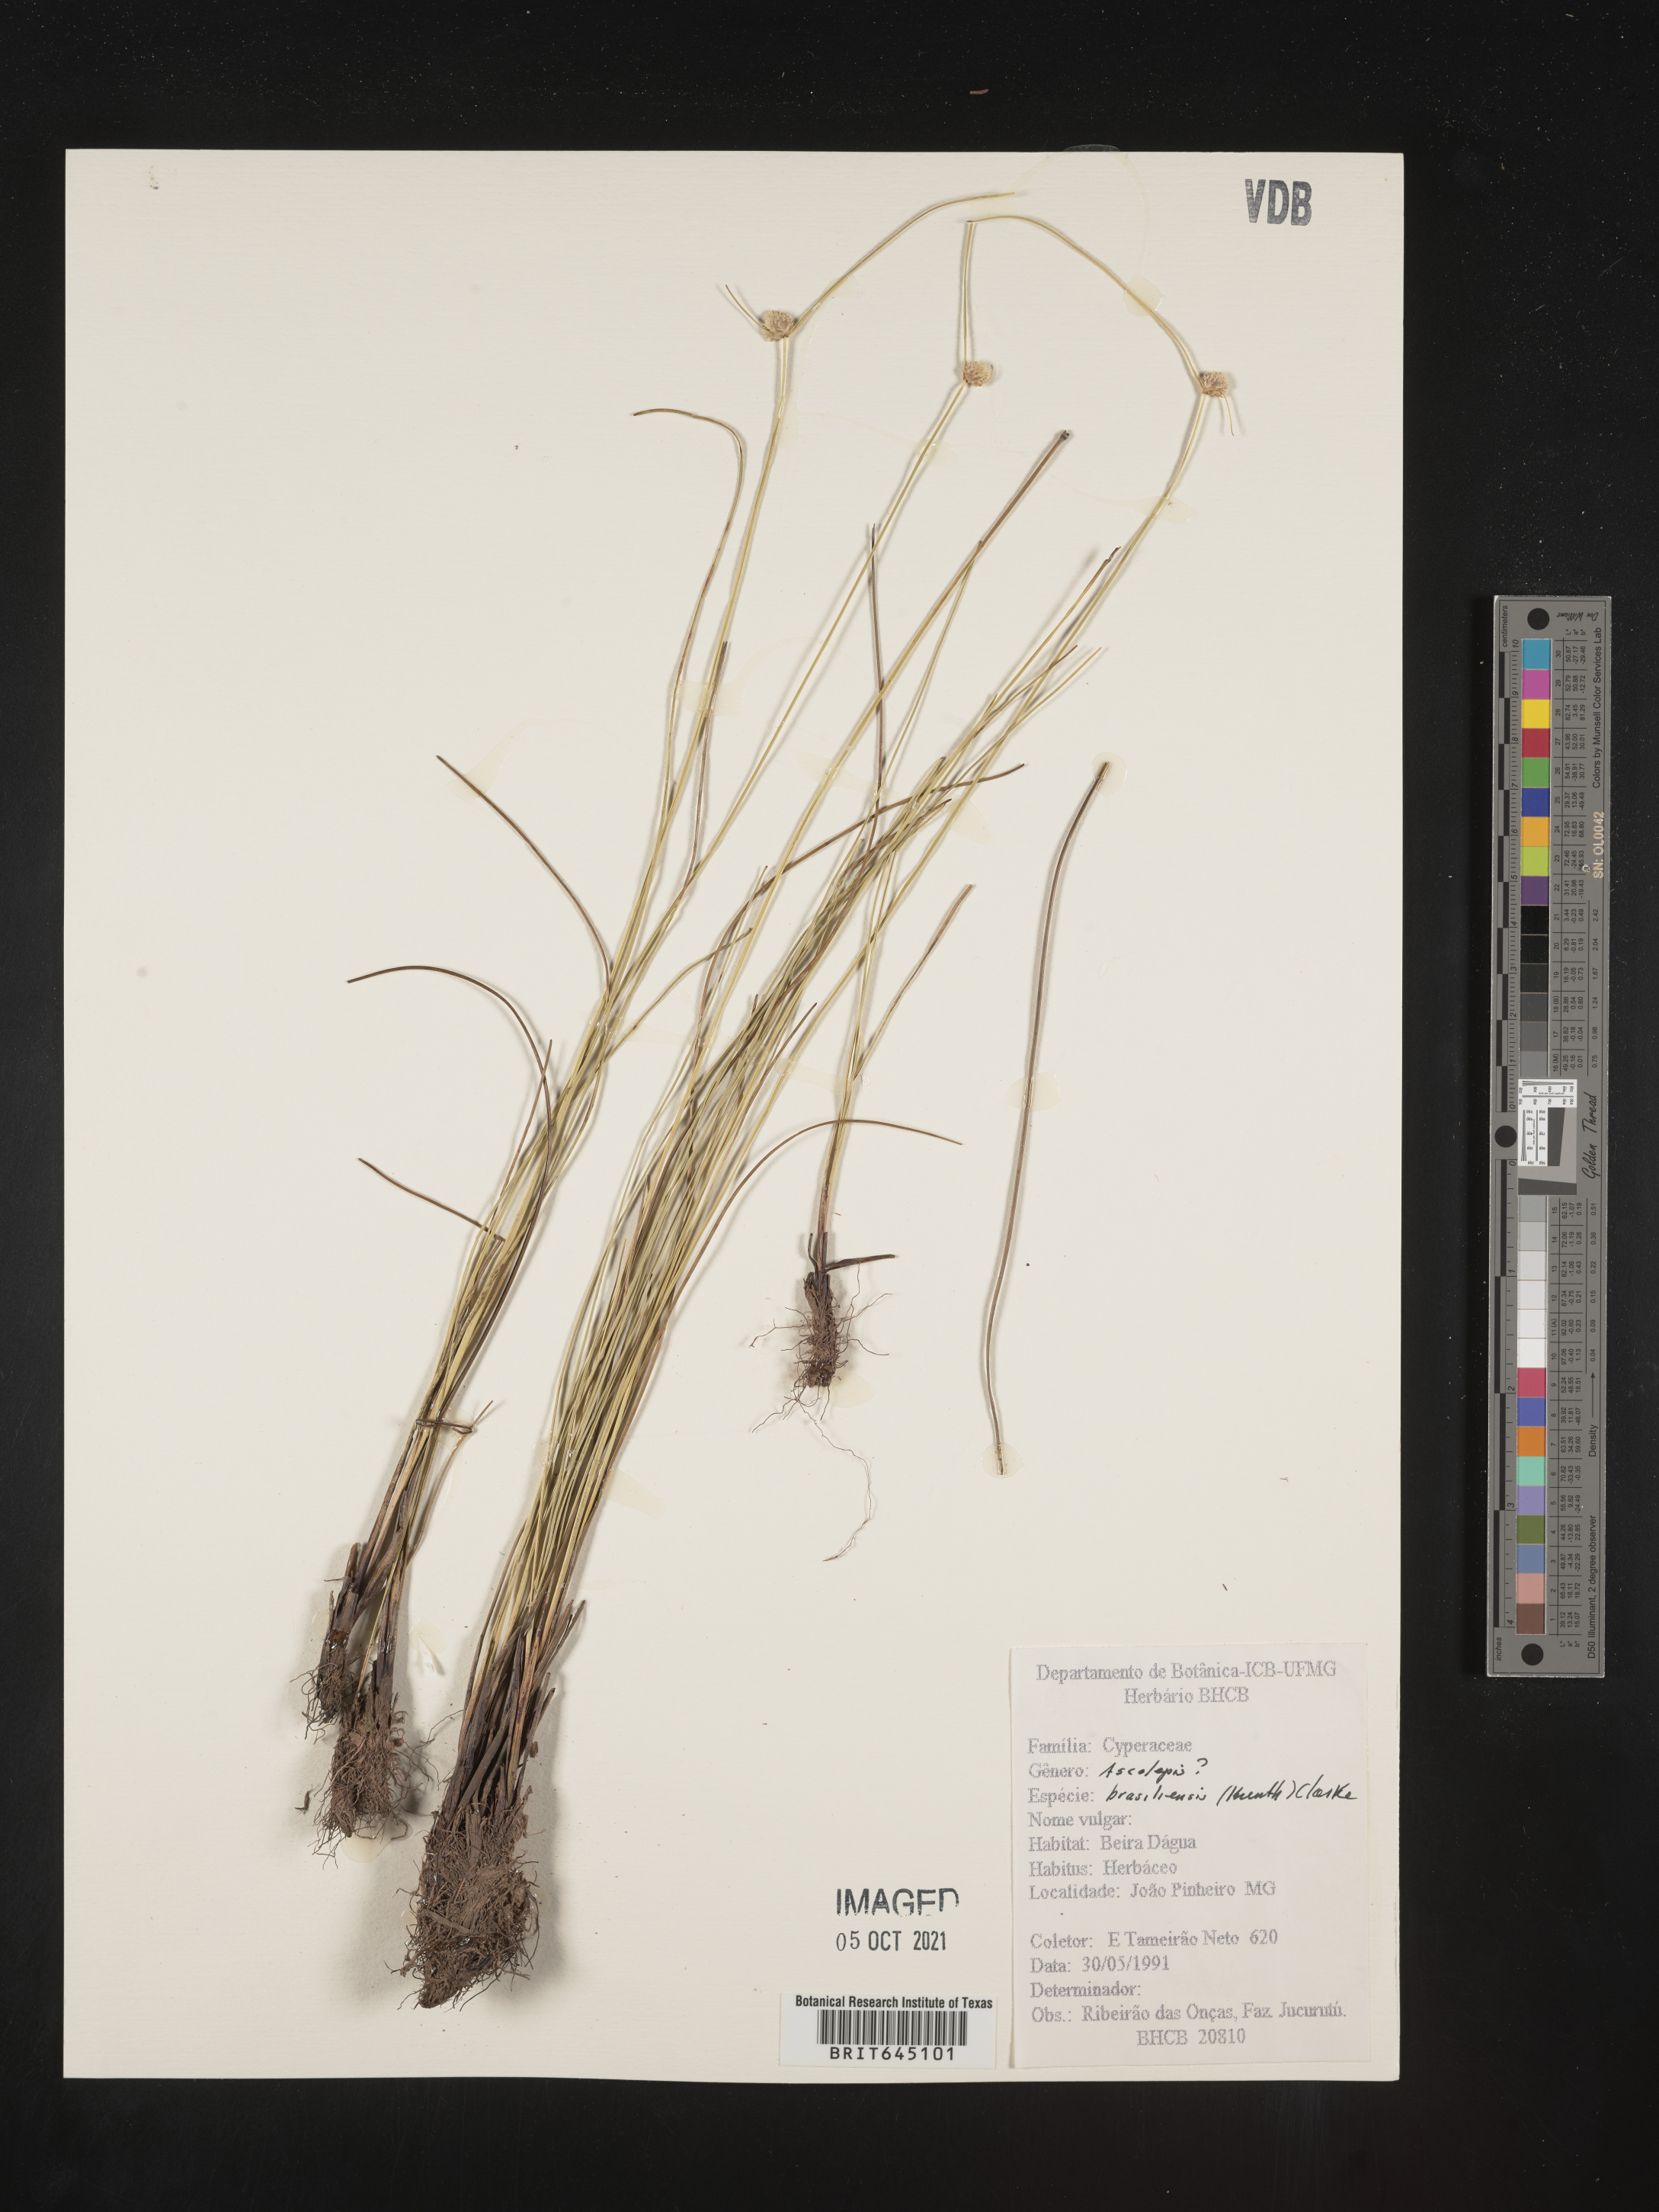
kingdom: Plantae
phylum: Tracheophyta
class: Liliopsida
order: Poales
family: Cyperaceae
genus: Cyperus
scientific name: Cyperus brasiliensis
